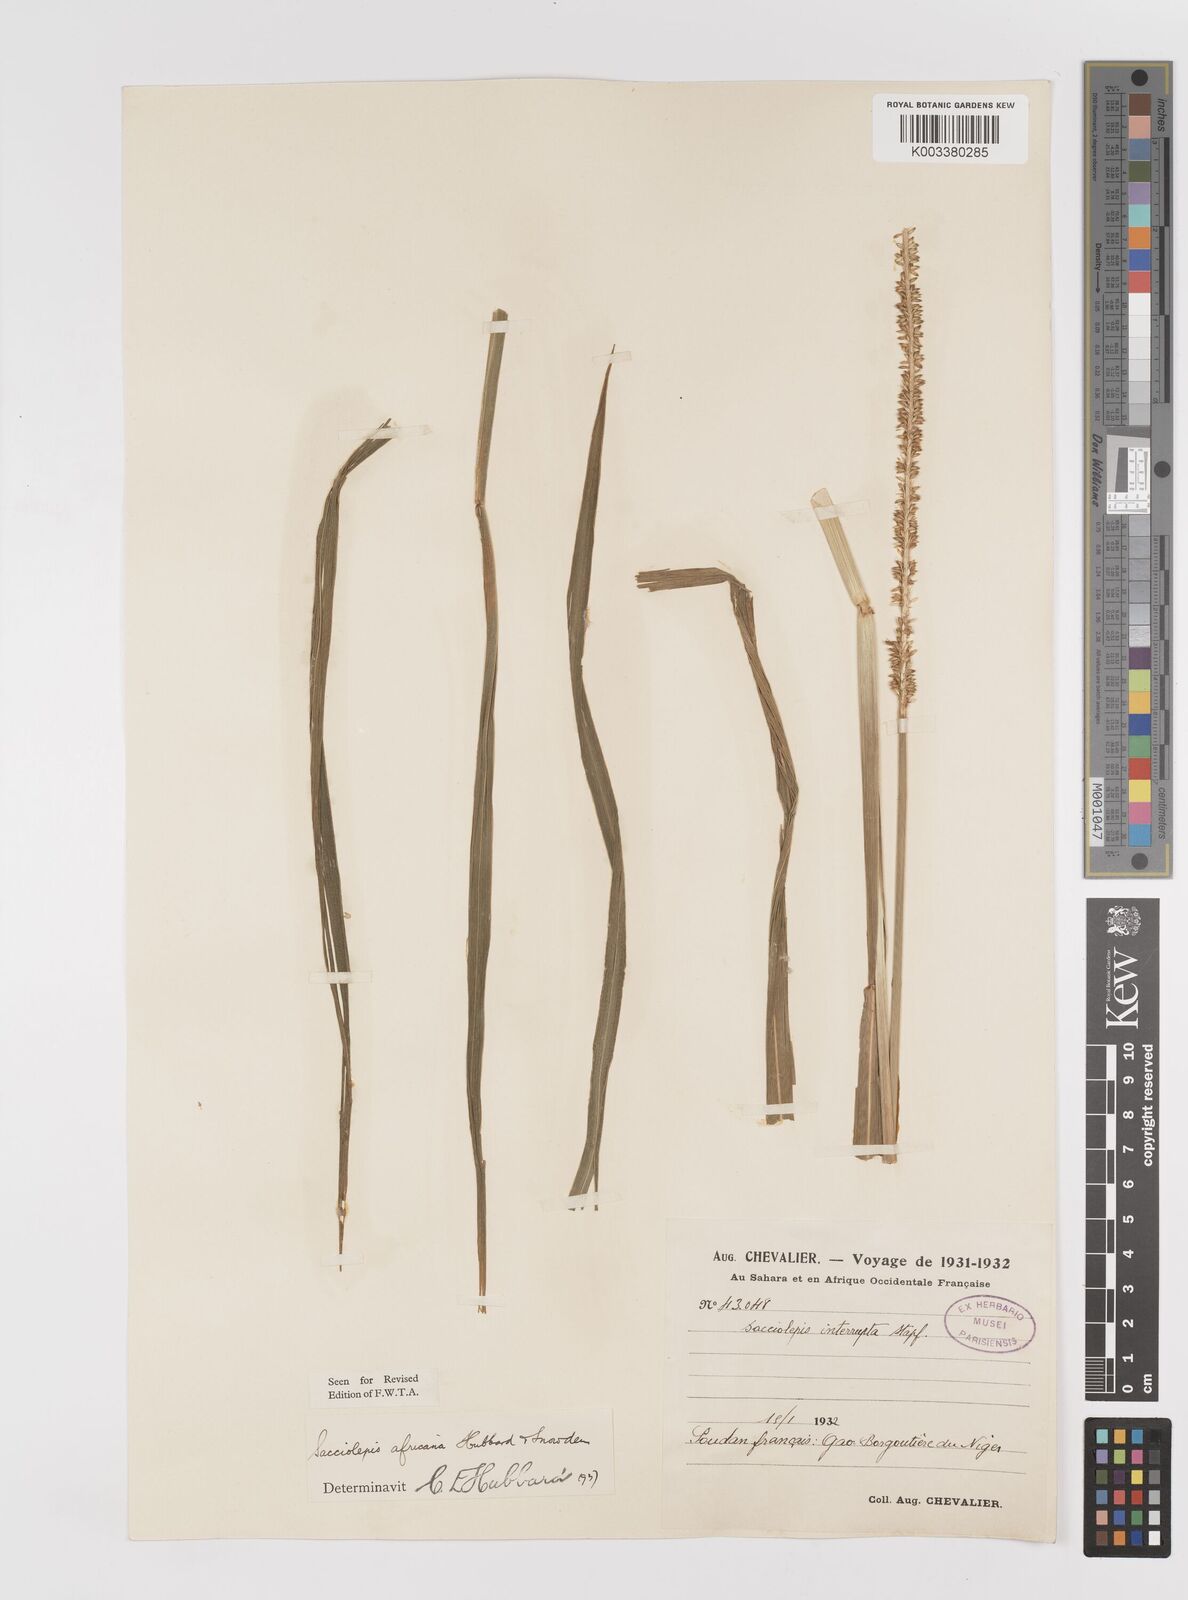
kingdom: Plantae
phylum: Tracheophyta
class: Liliopsida
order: Poales
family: Poaceae
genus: Sacciolepis
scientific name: Sacciolepis africana
